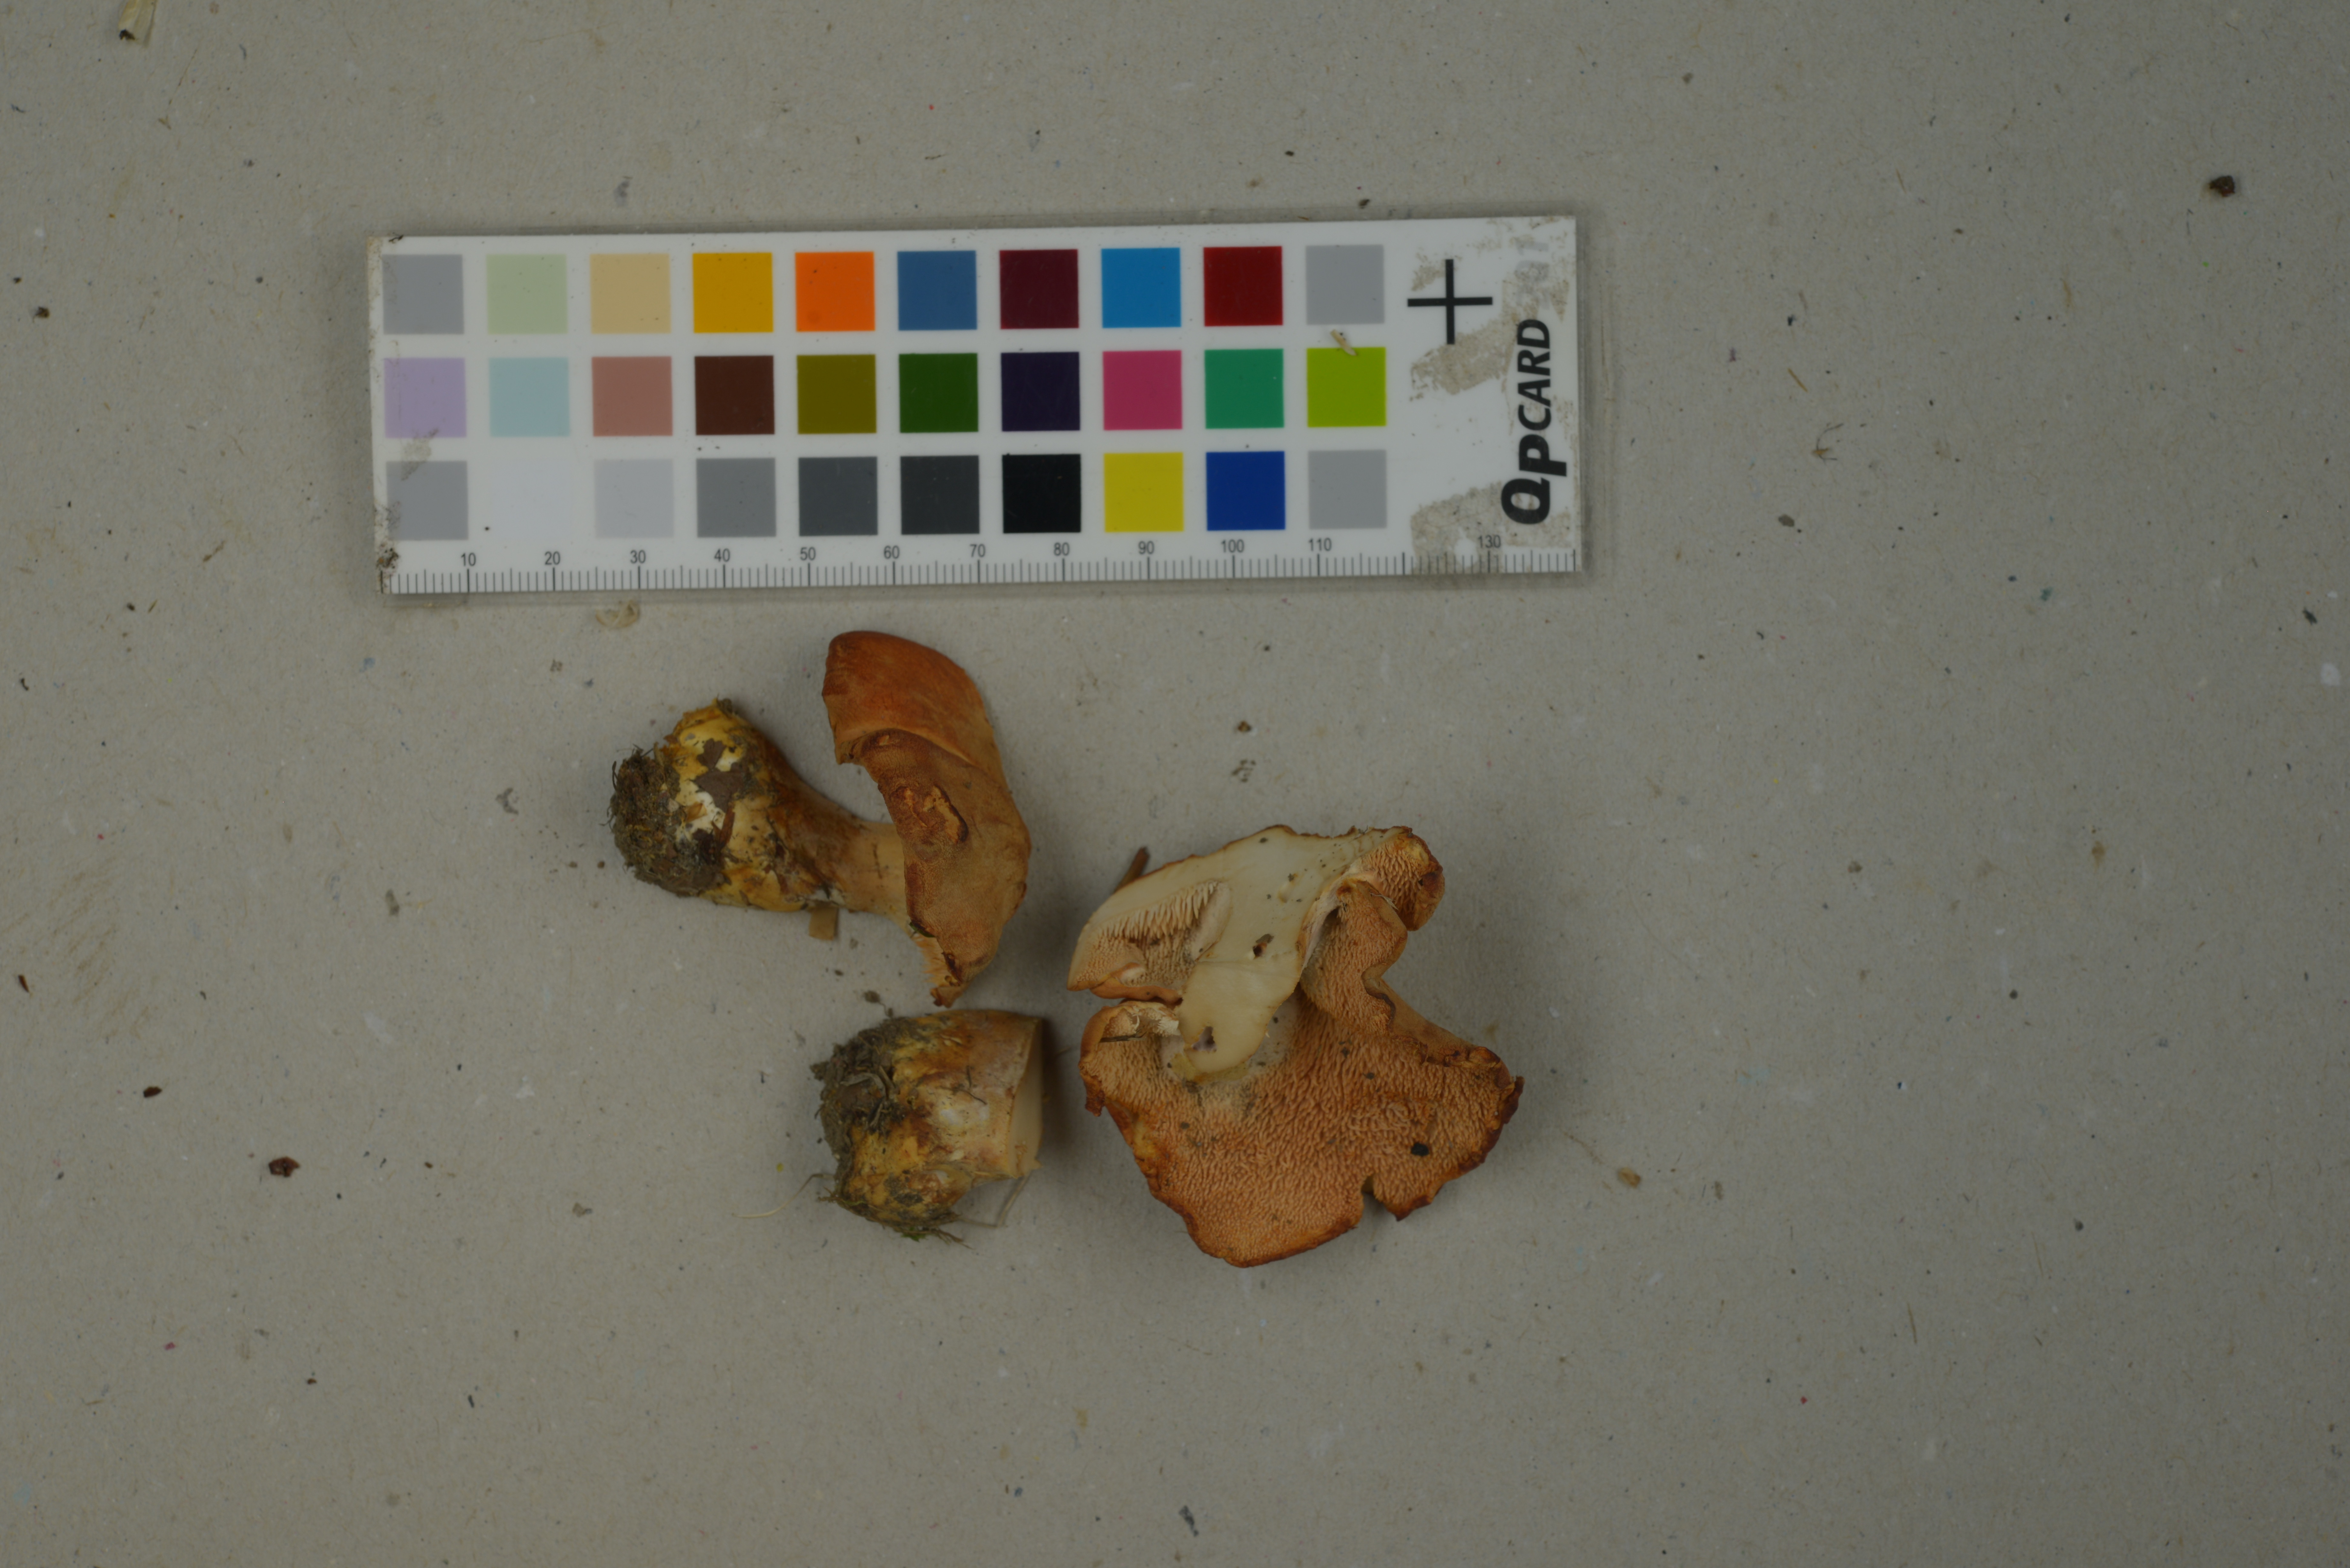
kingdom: Fungi
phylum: Basidiomycota
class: Agaricomycetes
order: Cantharellales
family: Hydnaceae
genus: Hydnum
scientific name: Hydnum magnorufescens
